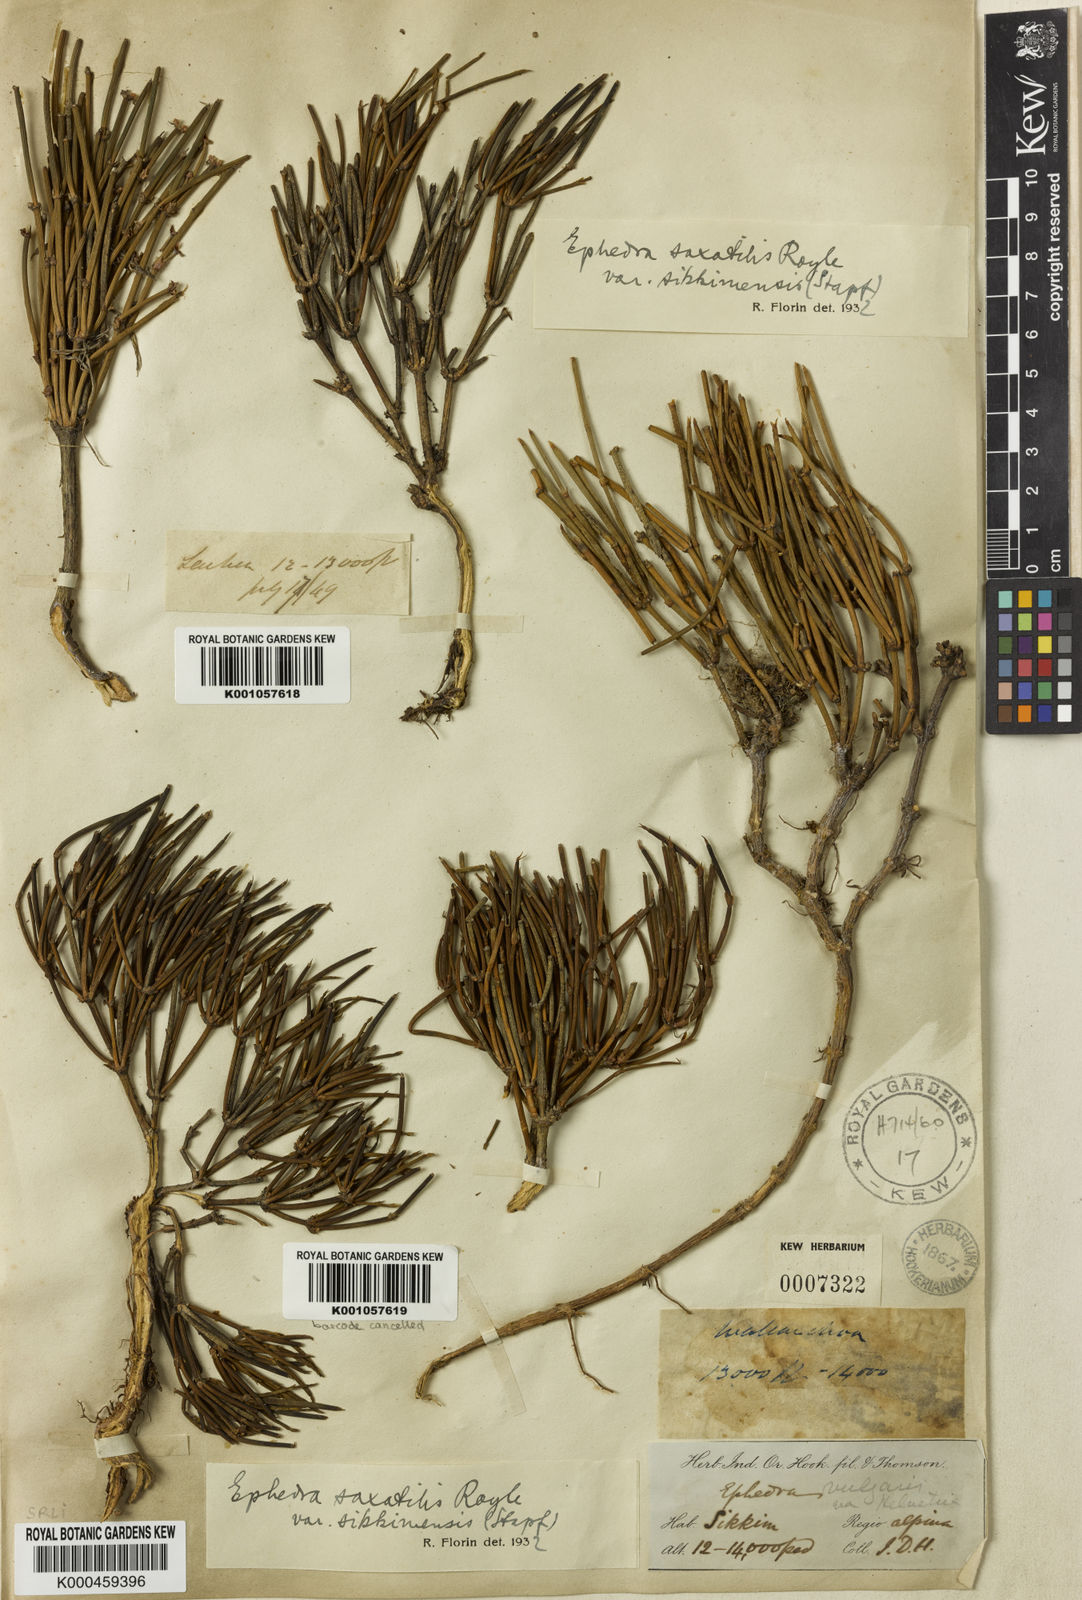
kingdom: Plantae
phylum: Tracheophyta
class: Gnetopsida
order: Ephedrales
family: Ephedraceae
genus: Ephedra
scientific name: Ephedra saxatilis
